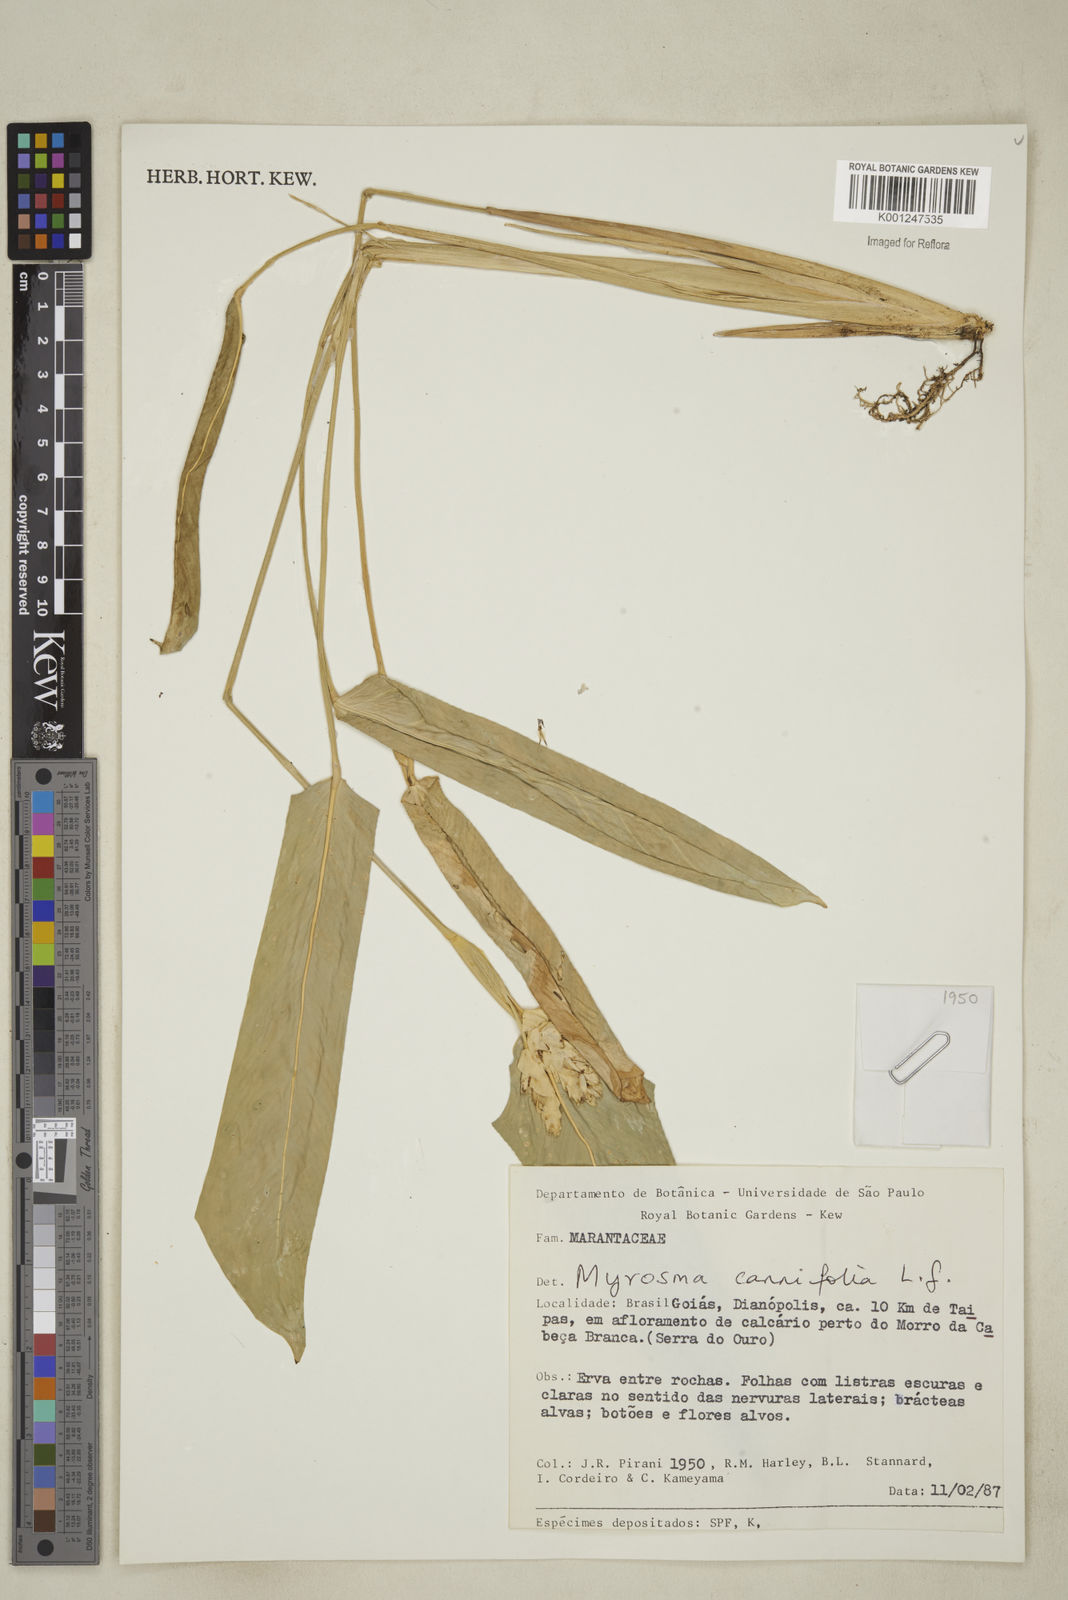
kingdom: Plantae
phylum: Tracheophyta
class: Liliopsida
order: Zingiberales
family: Marantaceae
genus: Myrosma
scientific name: Myrosma cannifolia
